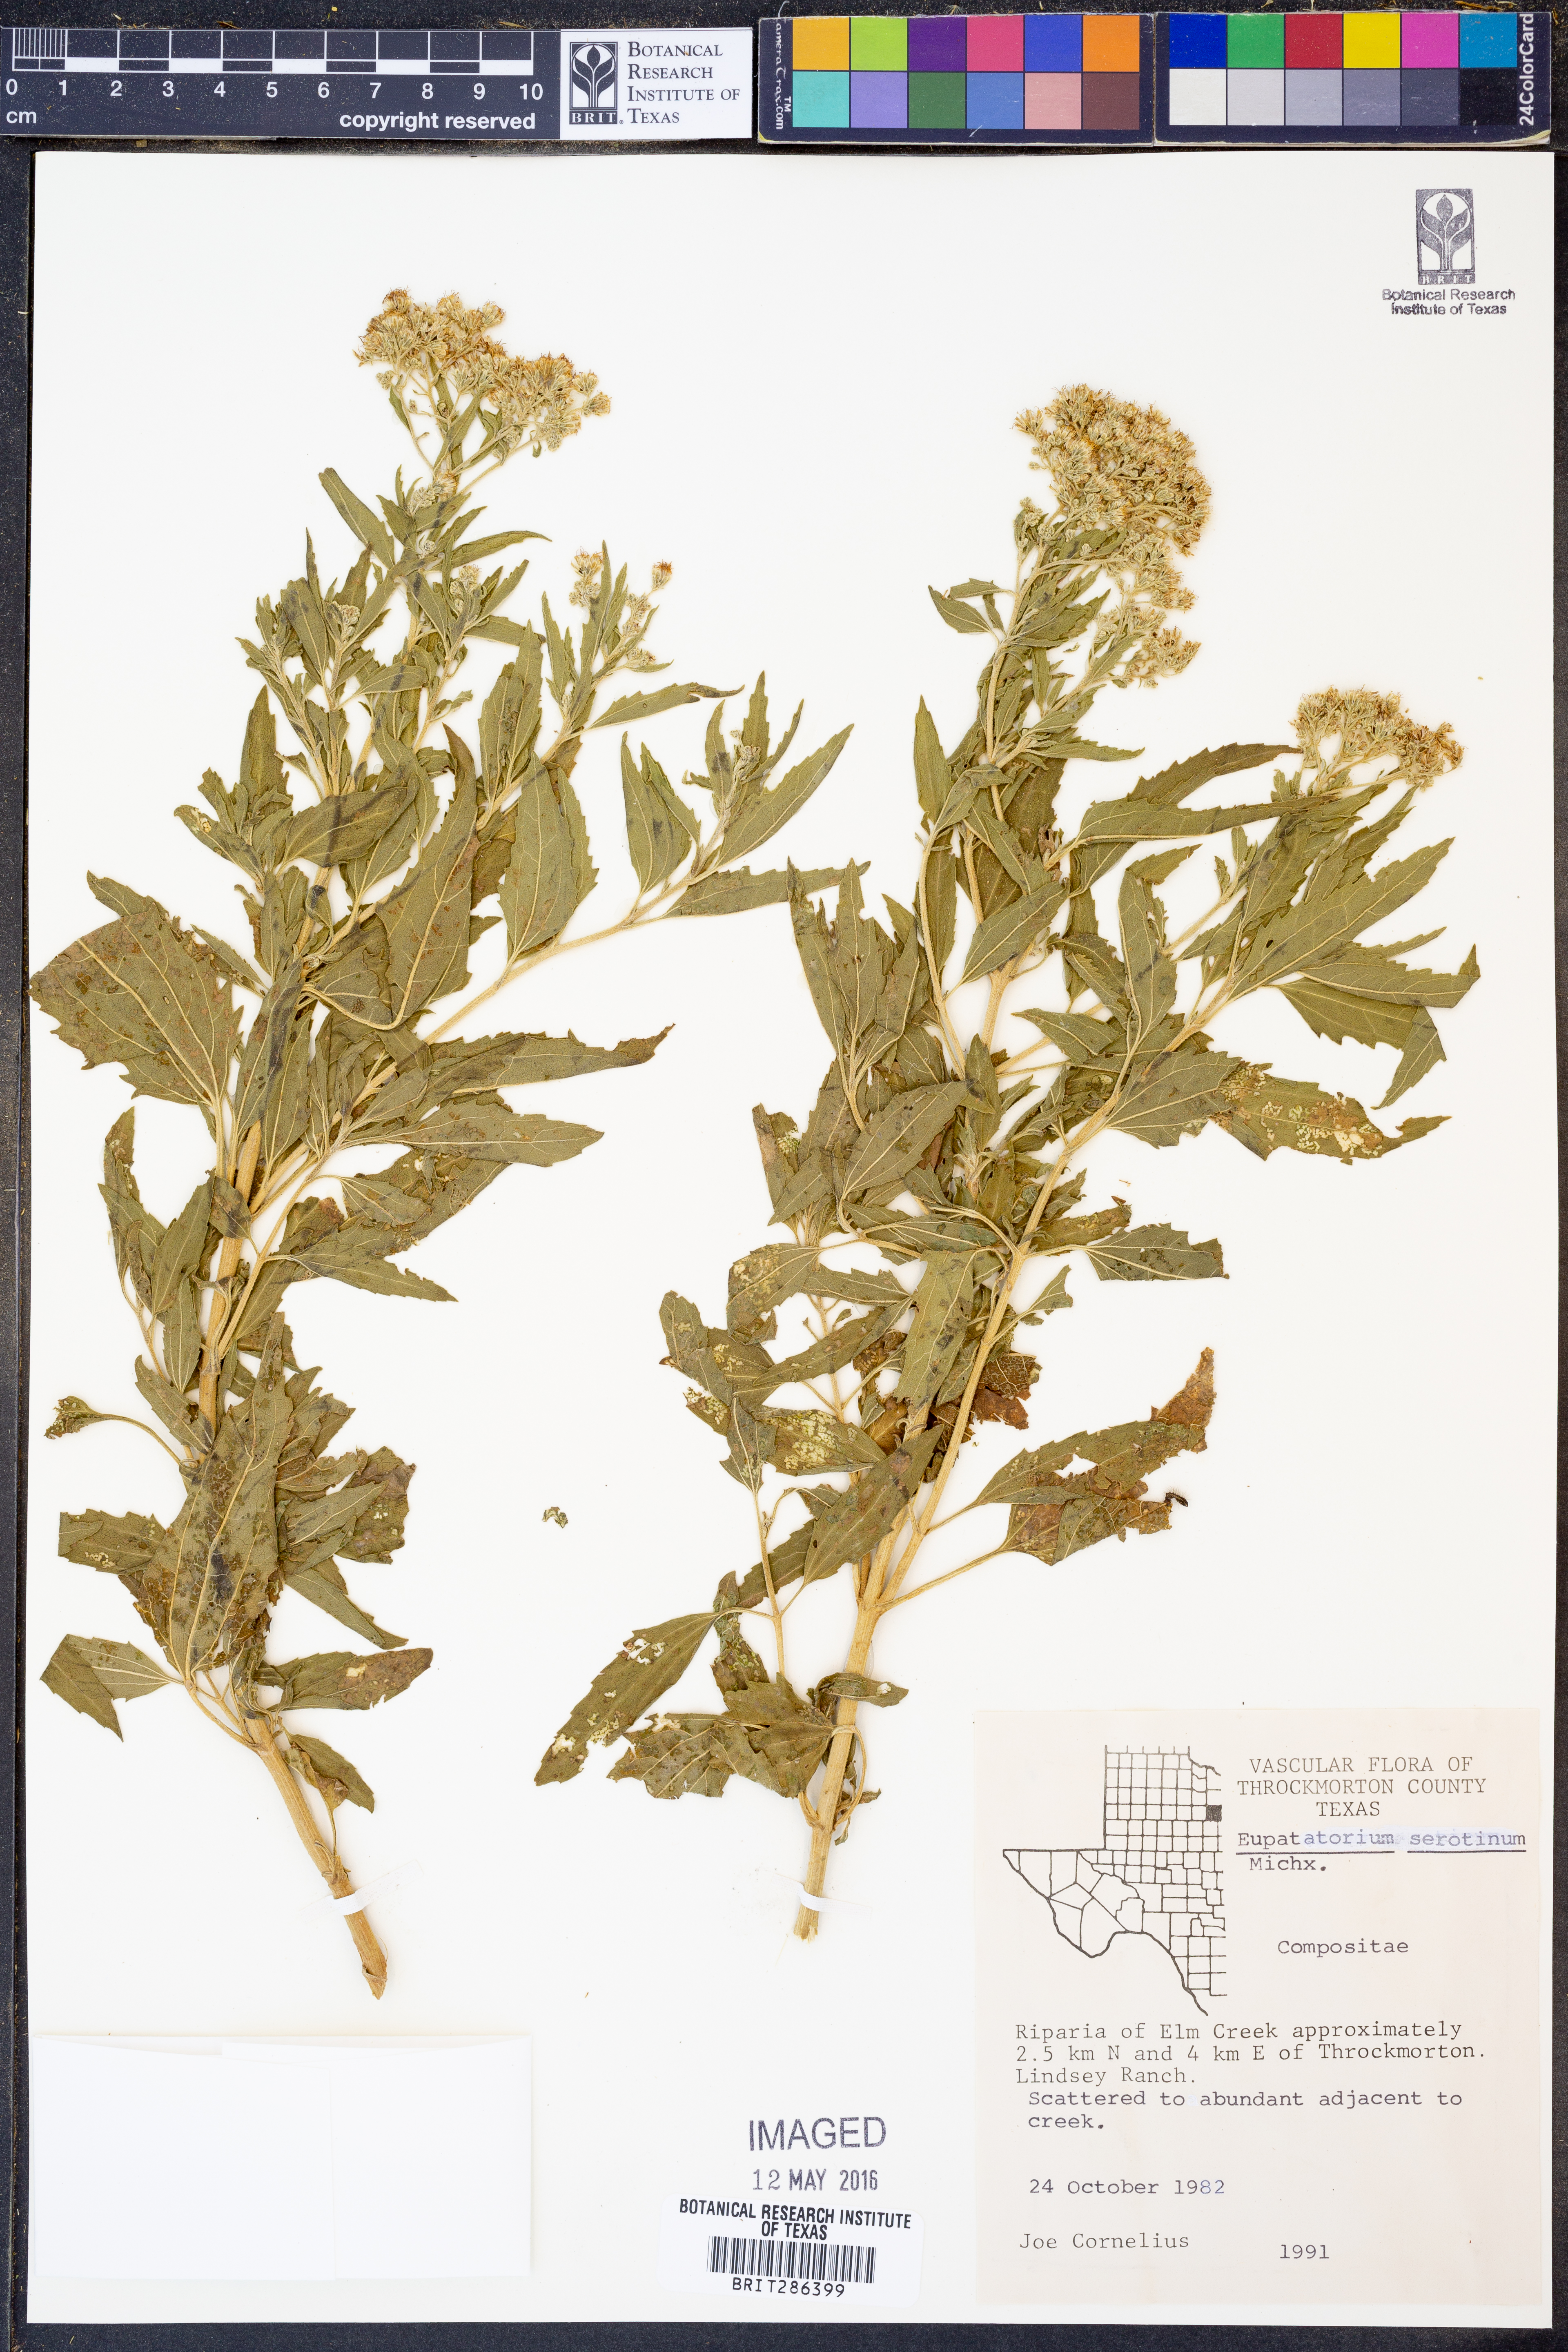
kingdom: Plantae
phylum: Tracheophyta
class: Magnoliopsida
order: Asterales
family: Asteraceae
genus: Eupatorium
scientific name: Eupatorium serotinum
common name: Late boneset
